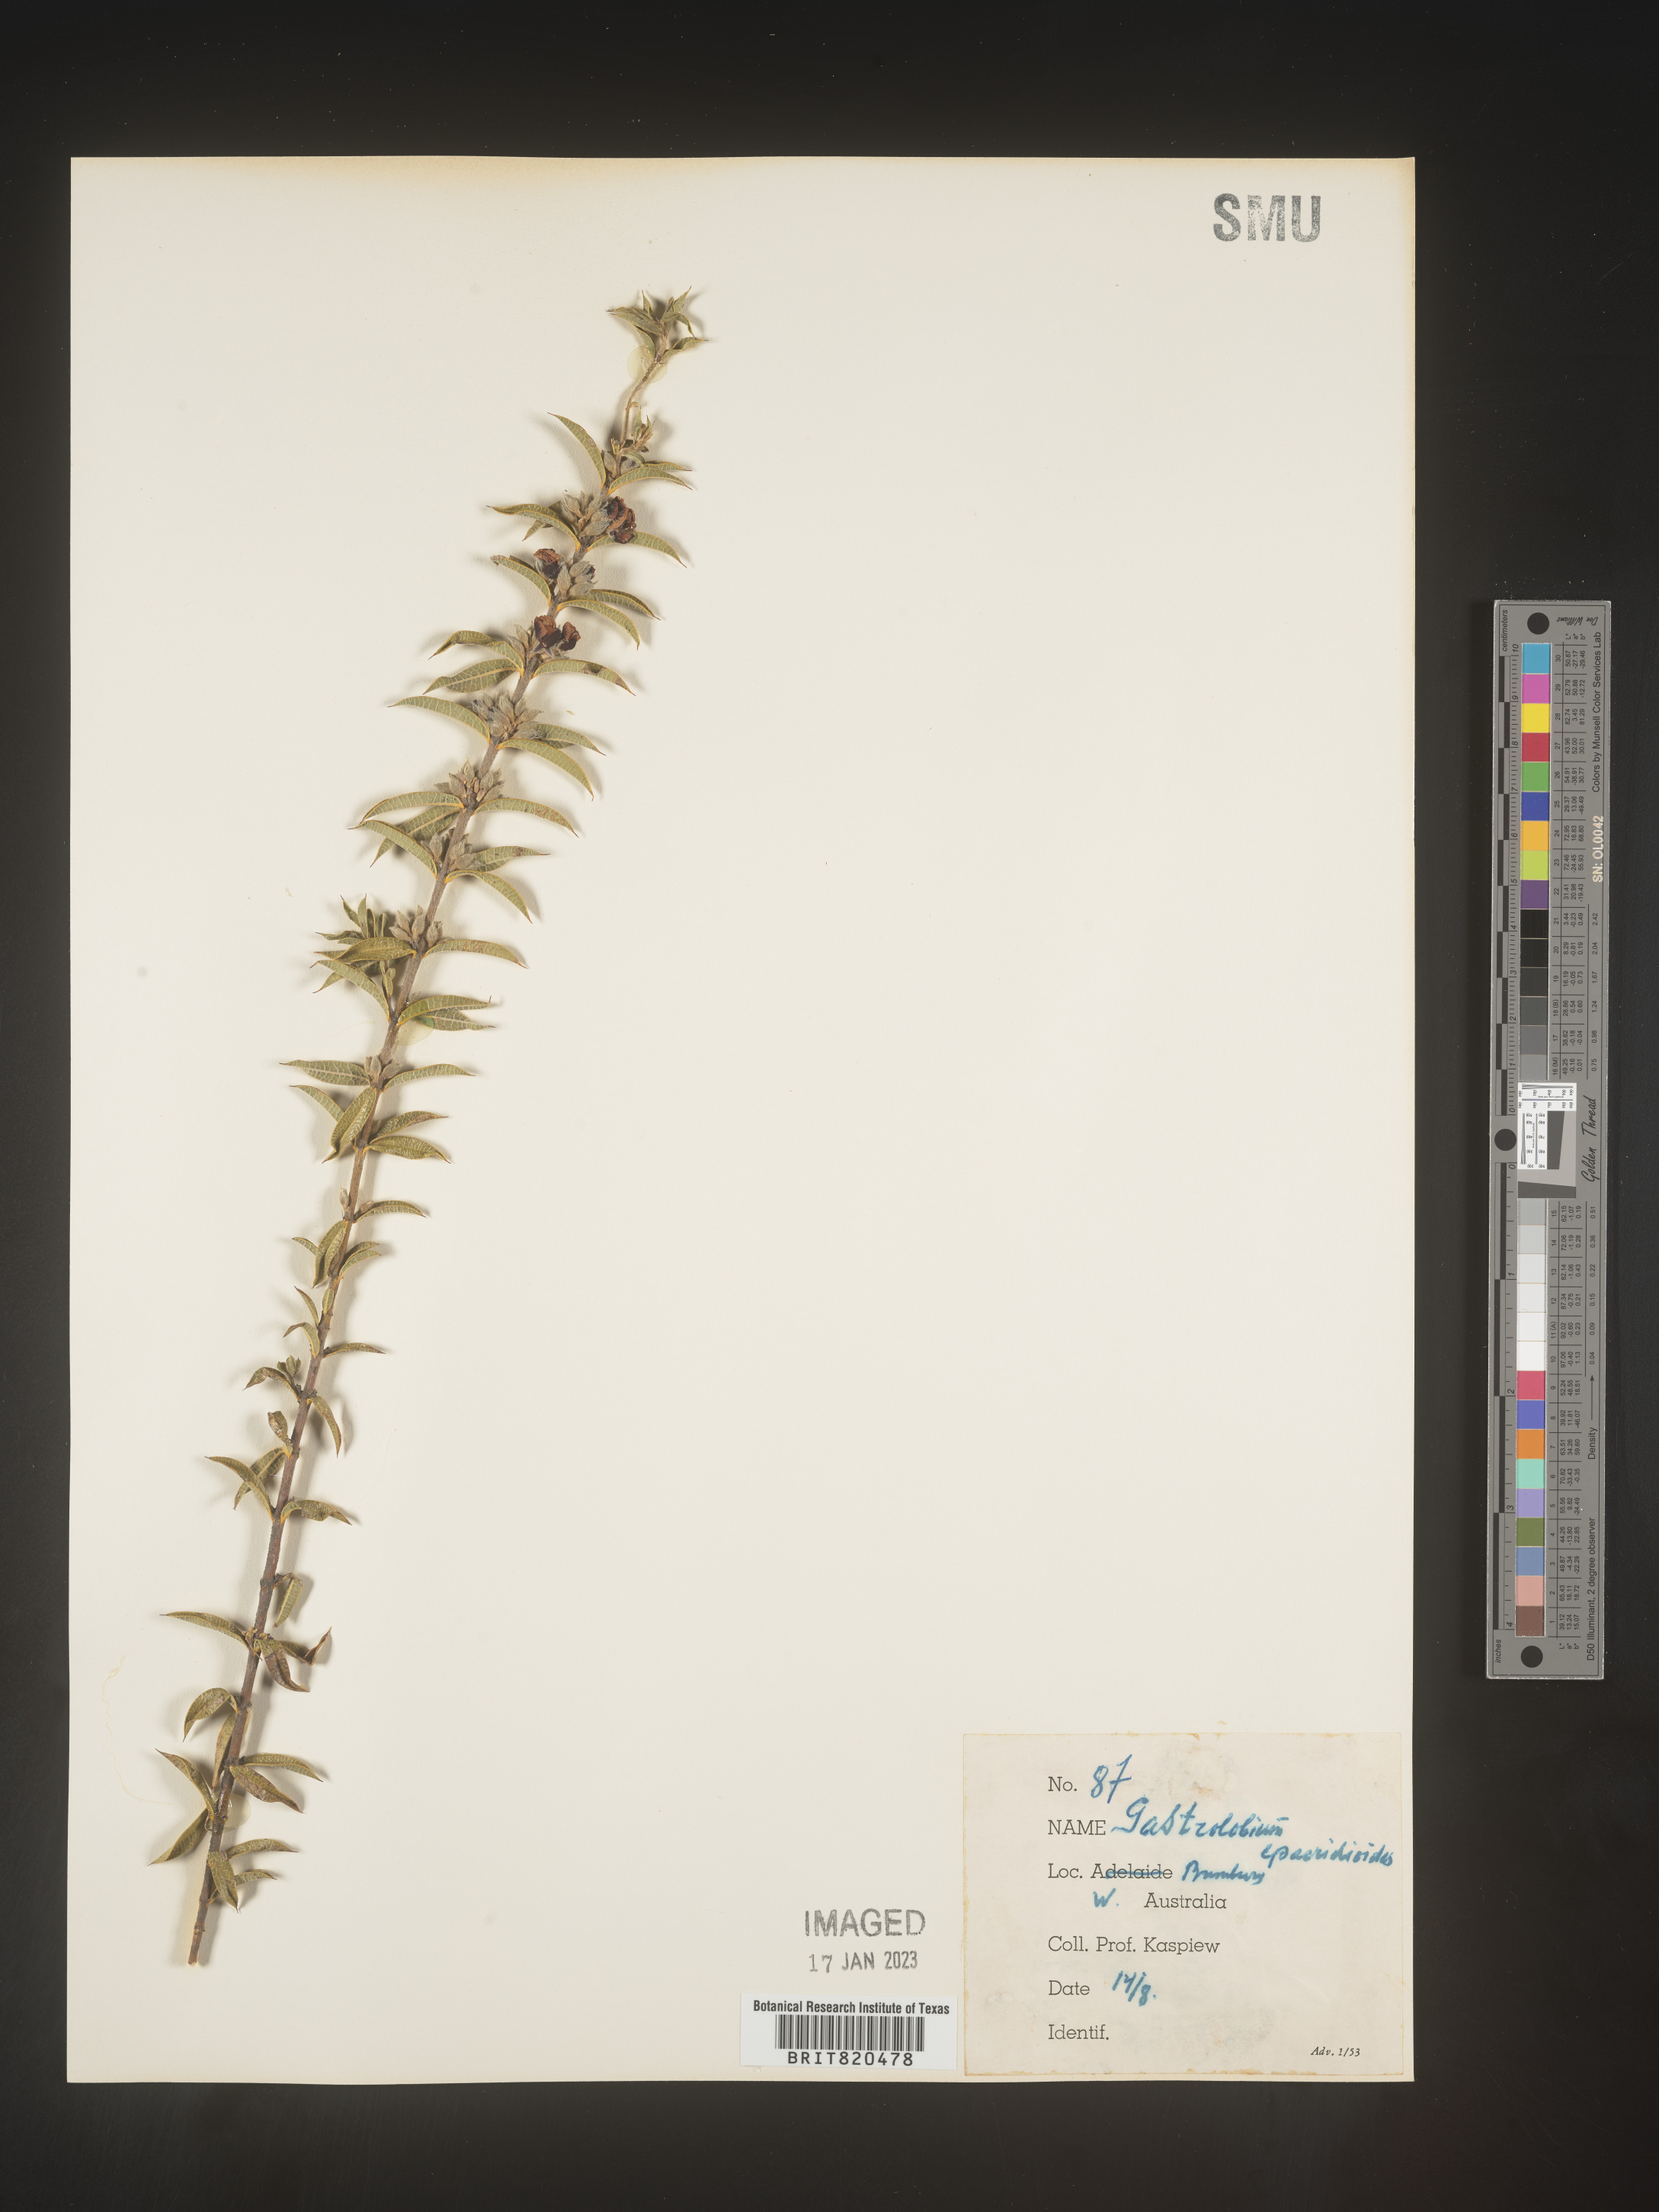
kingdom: Plantae
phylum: Tracheophyta
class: Magnoliopsida
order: Fabales
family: Fabaceae
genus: Gastrolobium
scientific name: Gastrolobium
